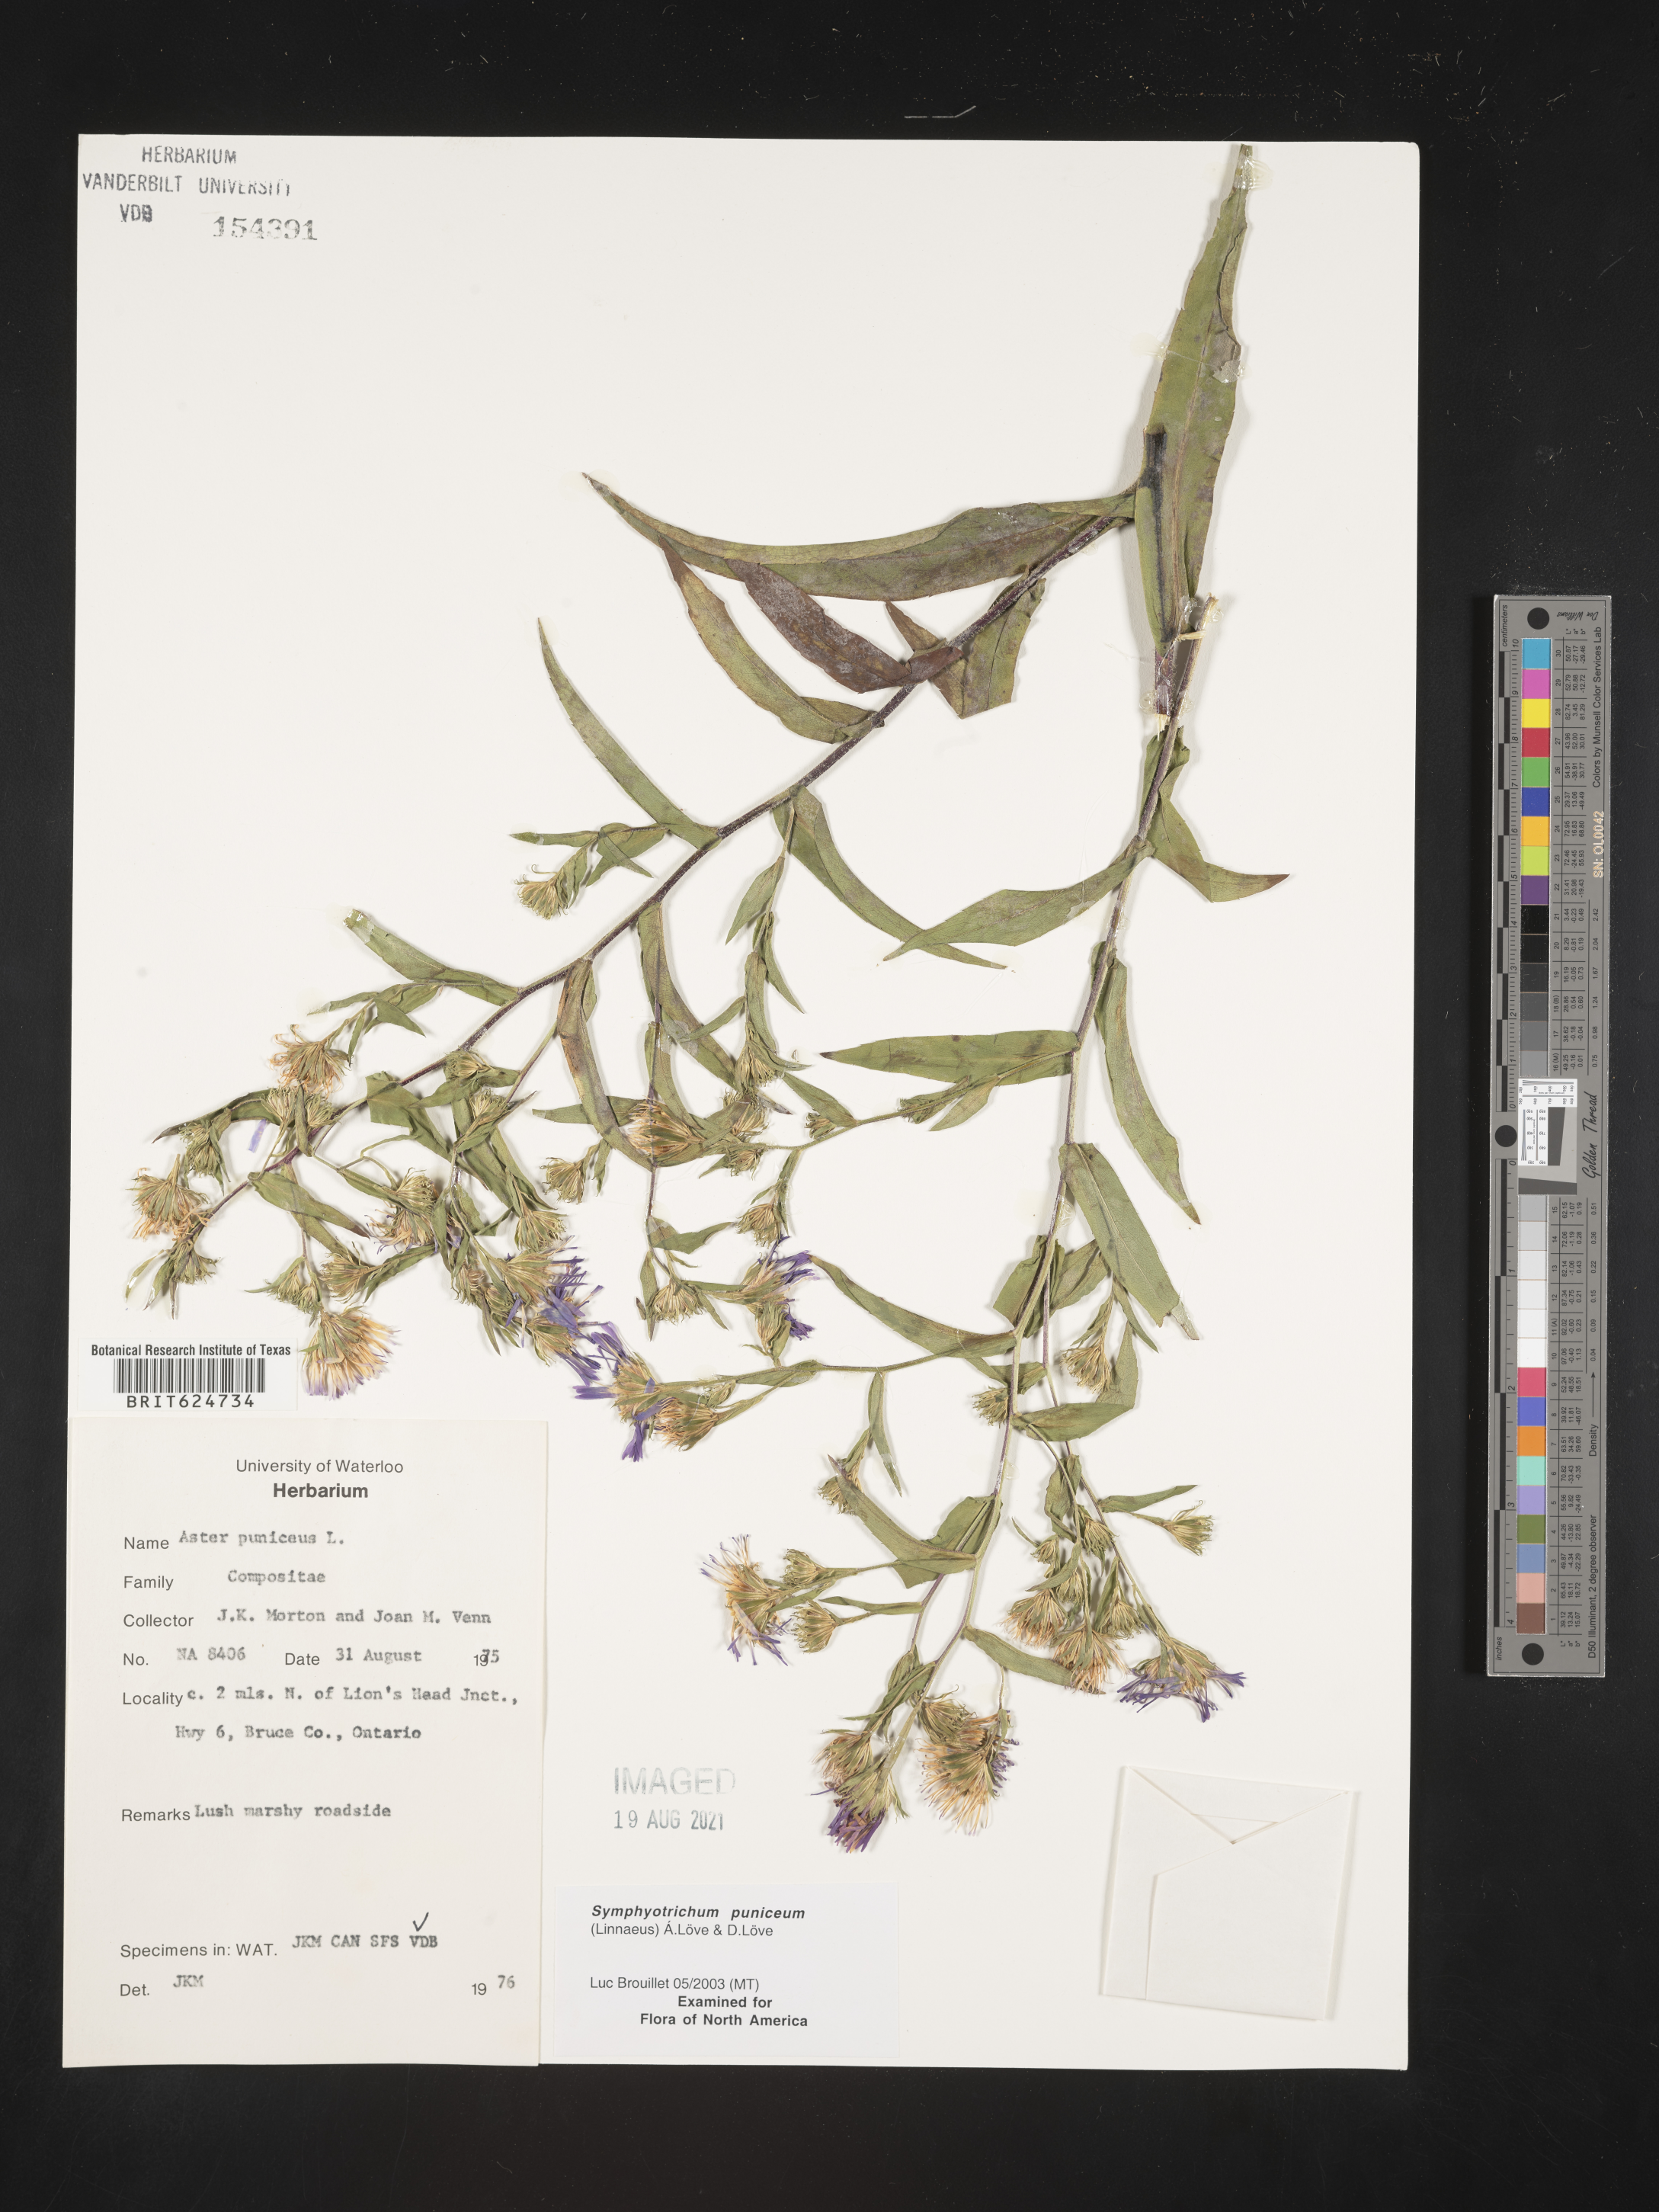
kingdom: Plantae
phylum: Tracheophyta
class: Magnoliopsida
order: Asterales
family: Asteraceae
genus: Symphyotrichum
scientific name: Symphyotrichum puniceum
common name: Bog aster
